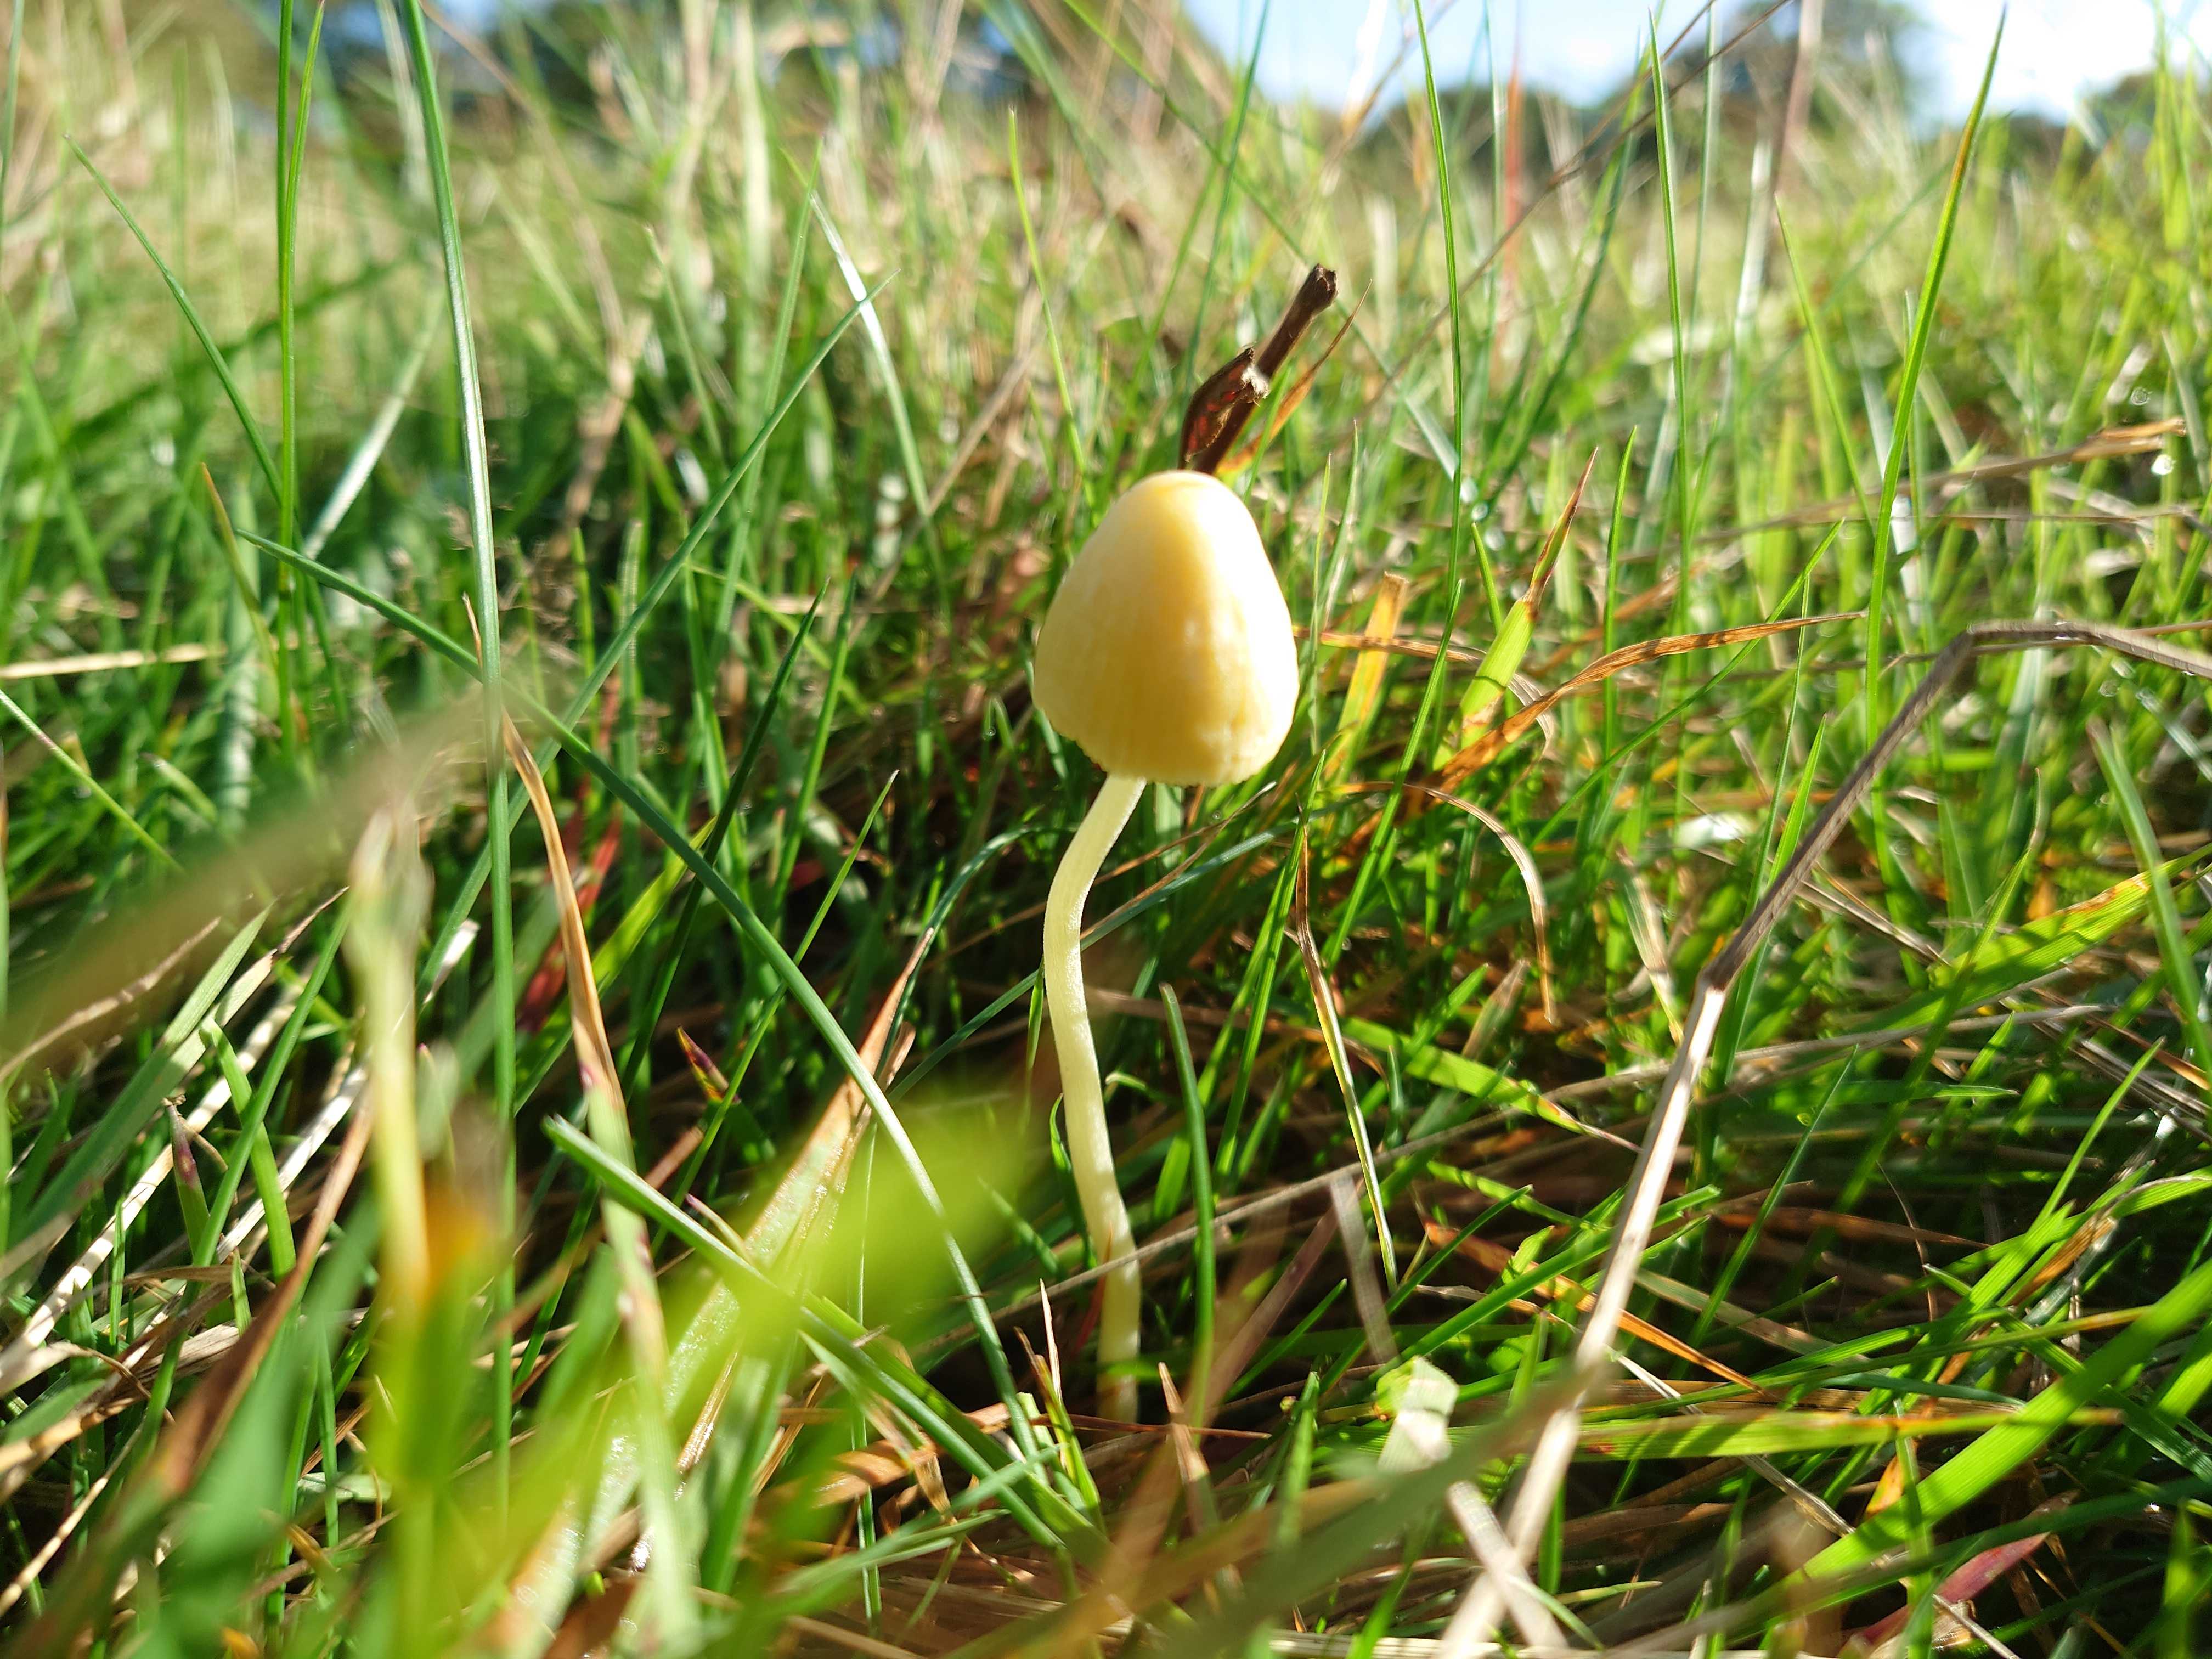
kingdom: Fungi
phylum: Basidiomycota
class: Agaricomycetes
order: Agaricales
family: Bolbitiaceae
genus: Bolbitius
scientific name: Bolbitius titubans
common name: almindelig gulhat
